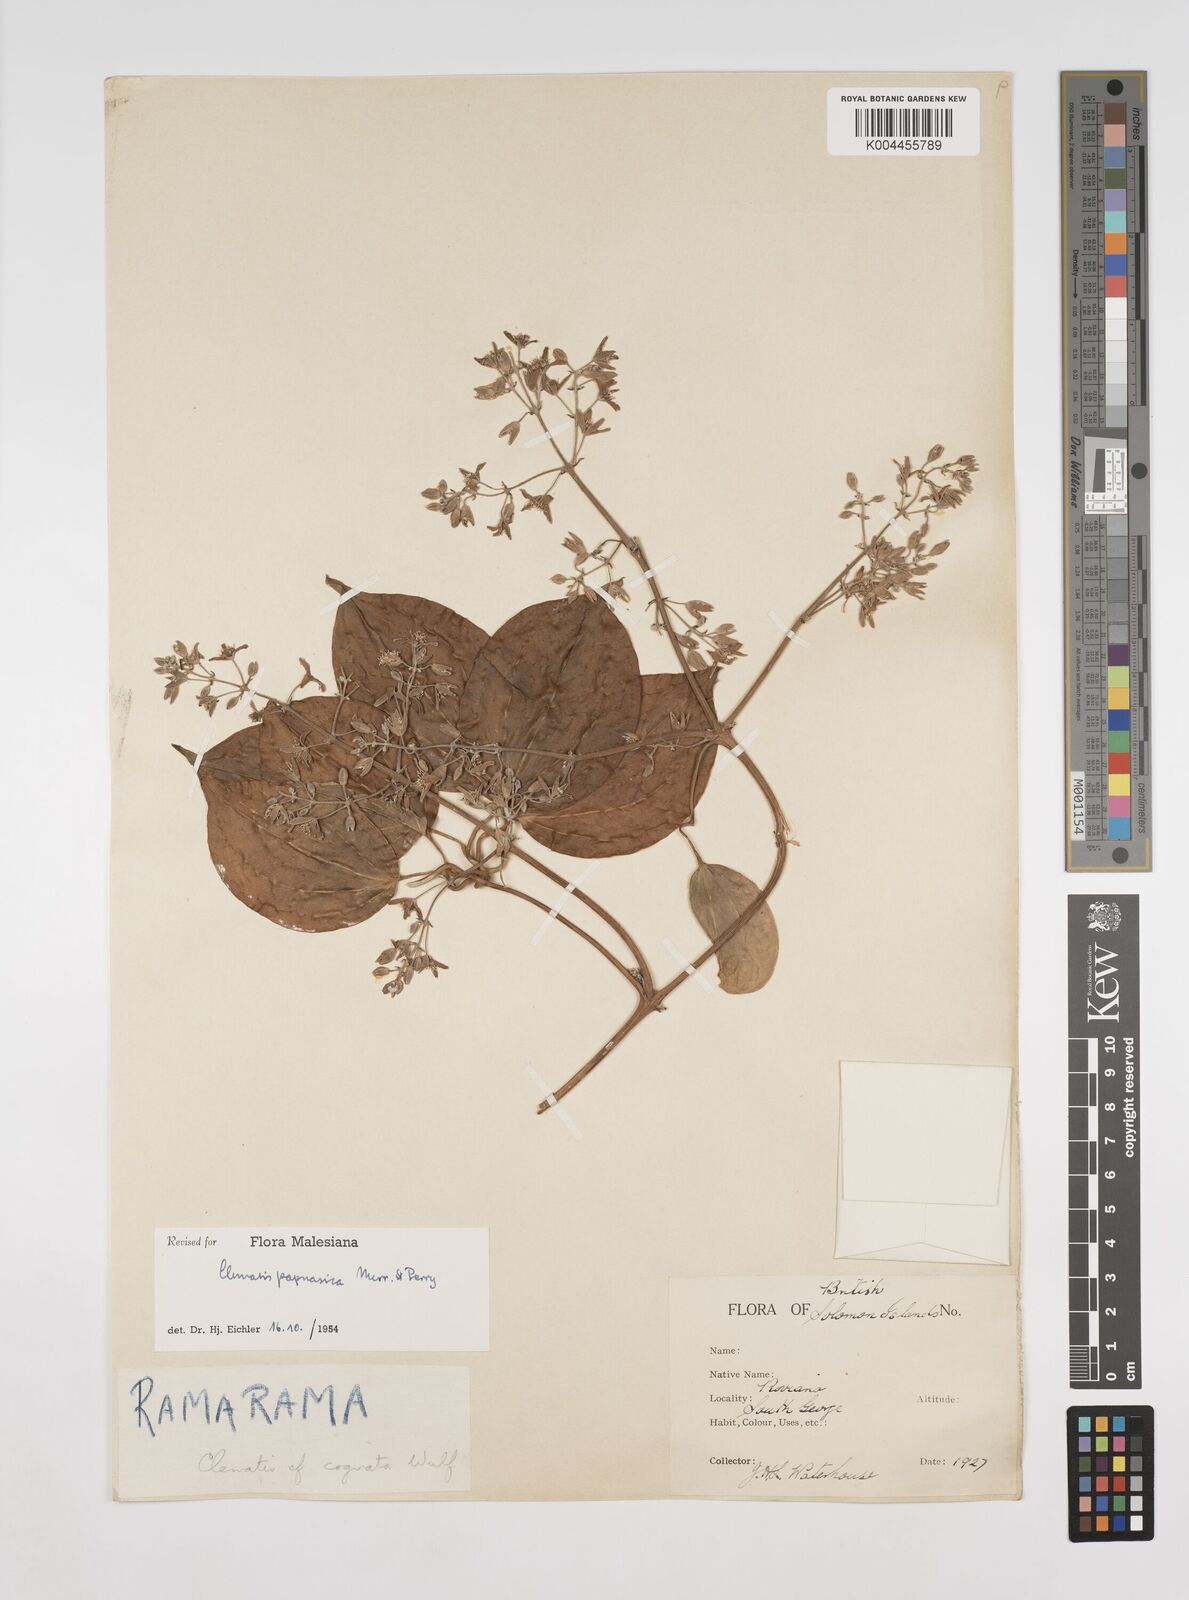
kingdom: Plantae
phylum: Tracheophyta
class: Magnoliopsida
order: Ranunculales
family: Ranunculaceae
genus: Clematis
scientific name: Clematis papuasica
